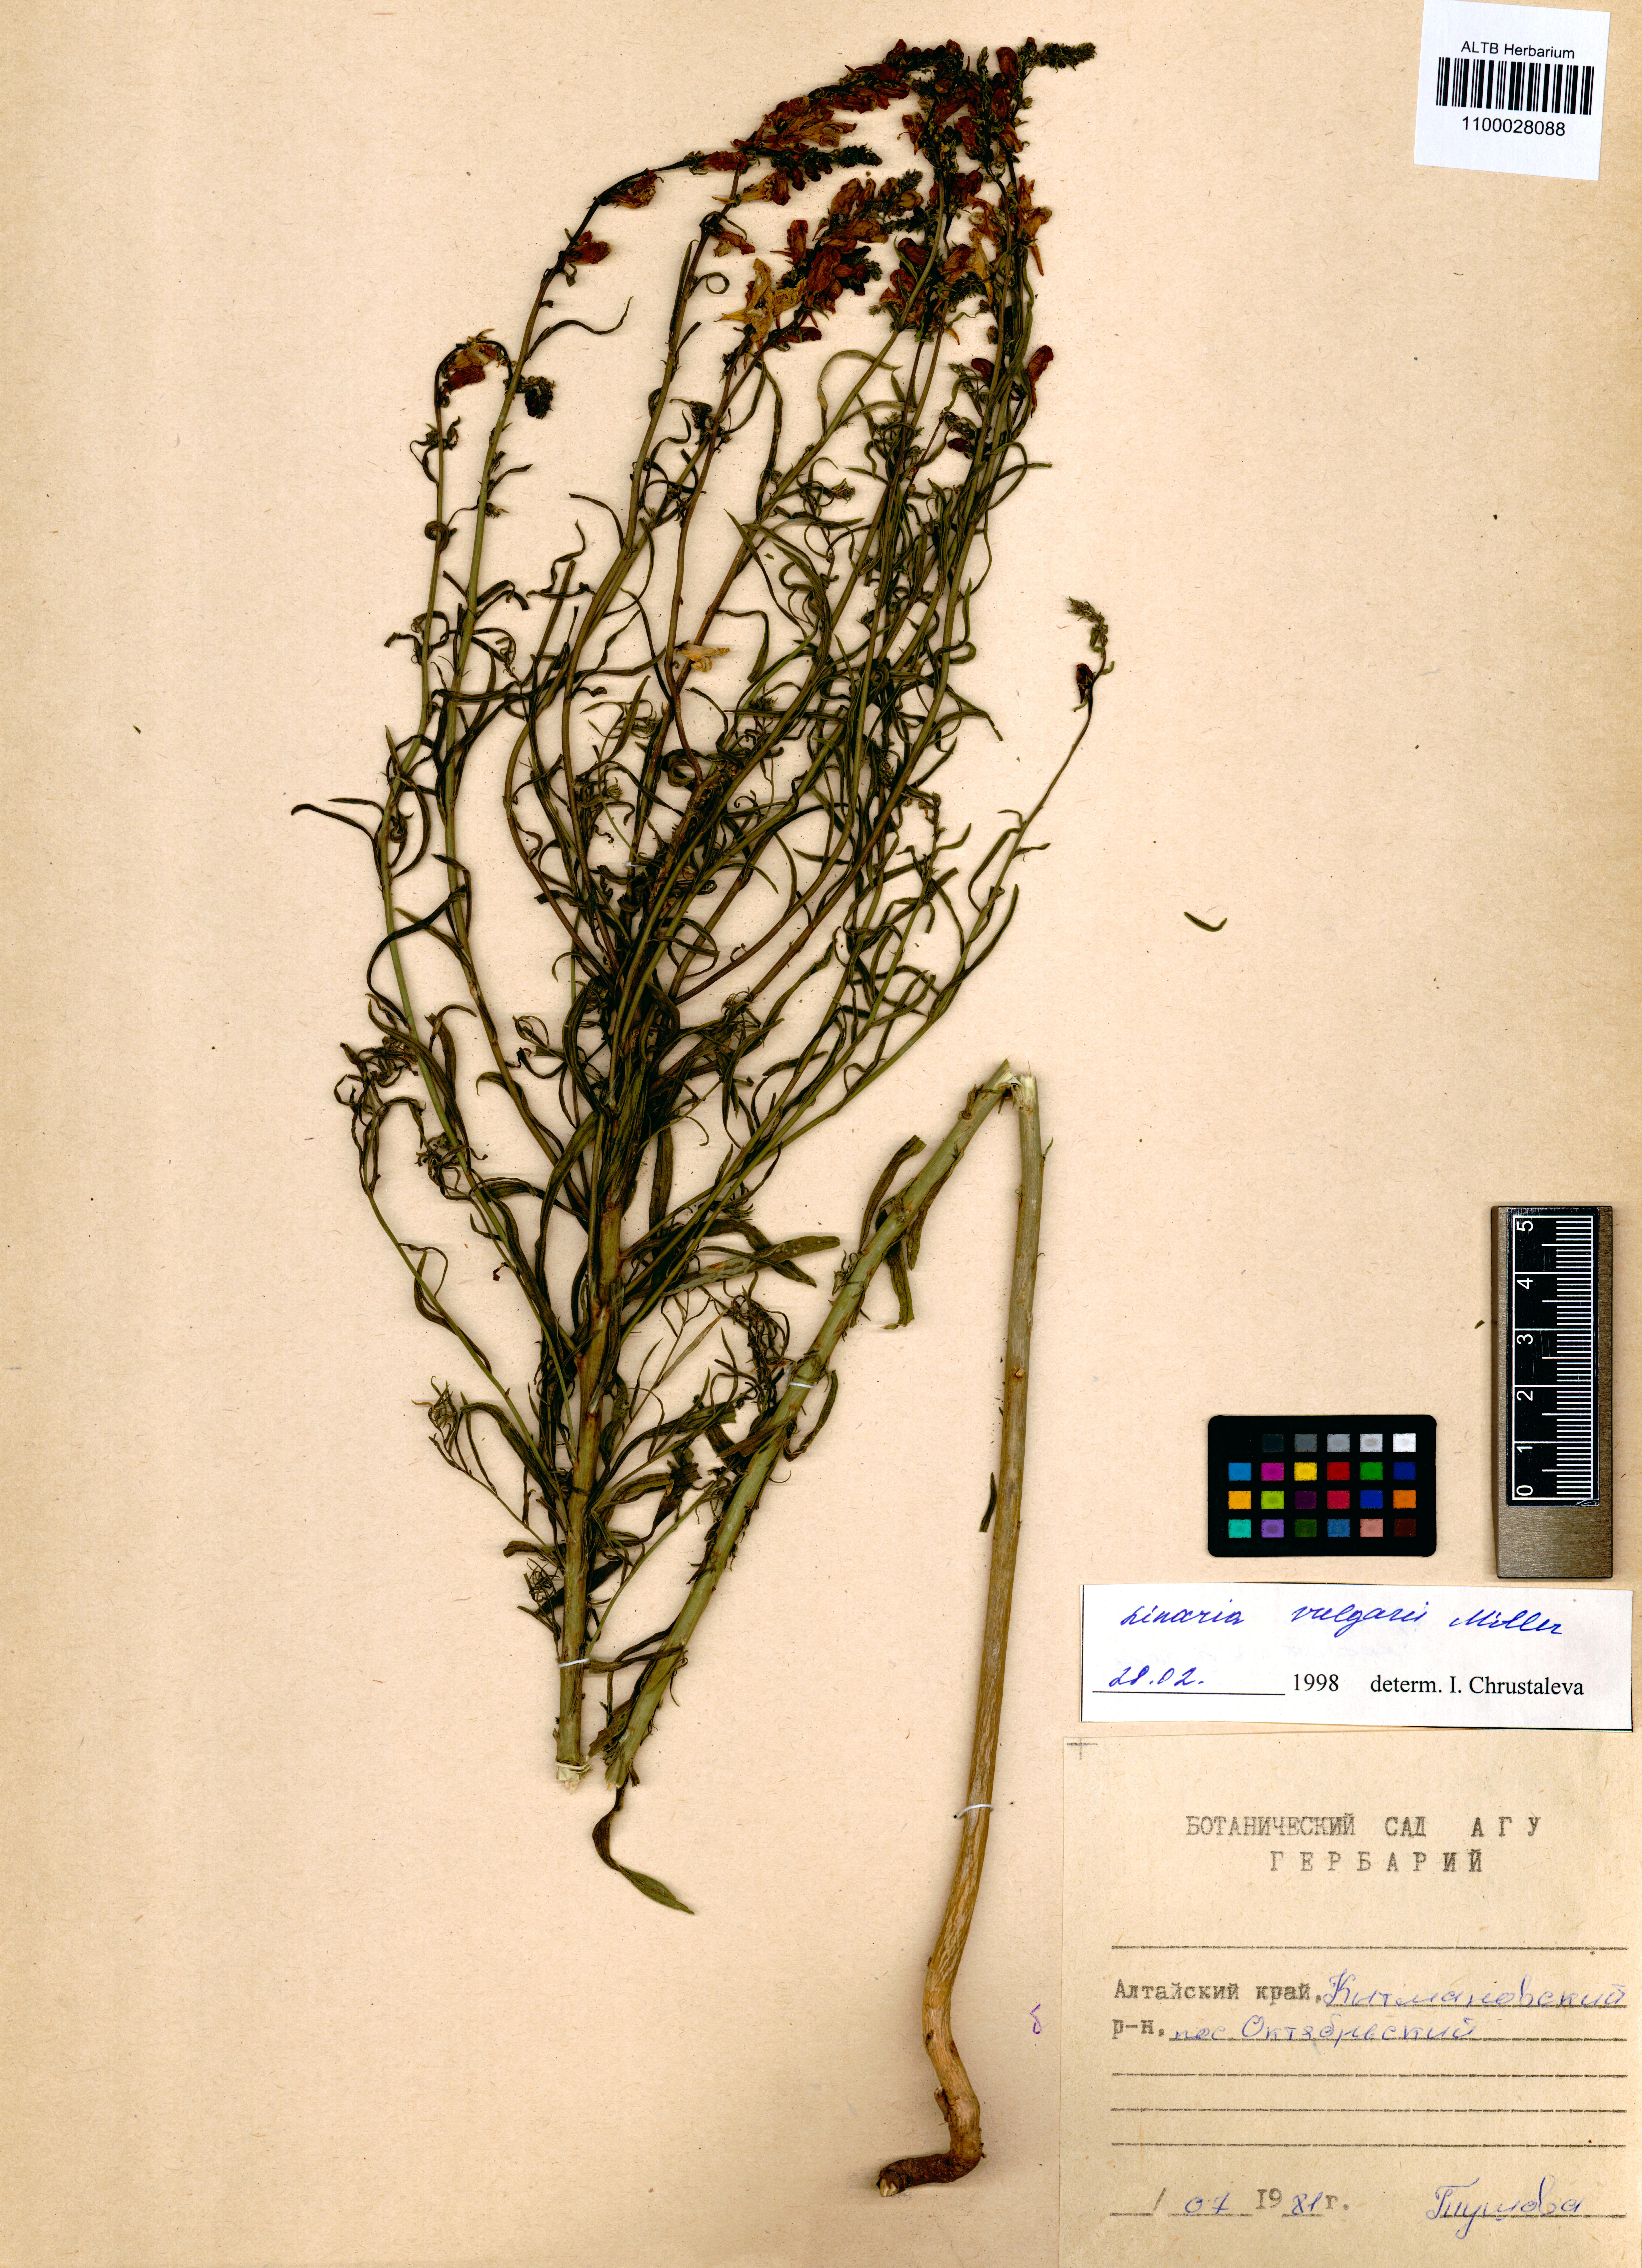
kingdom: Plantae
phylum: Tracheophyta
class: Magnoliopsida
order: Lamiales
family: Plantaginaceae
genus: Linaria
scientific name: Linaria vulgaris
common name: Butter and eggs
